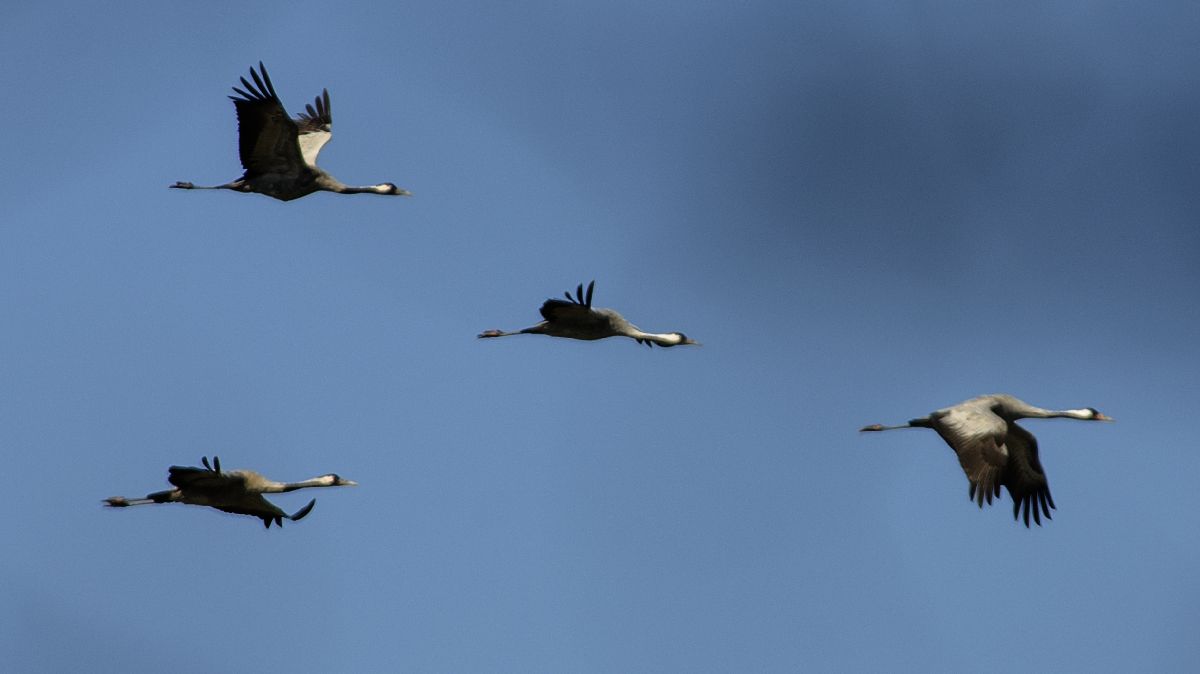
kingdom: Animalia
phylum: Chordata
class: Aves
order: Gruiformes
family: Gruidae
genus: Grus
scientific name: Grus grus
